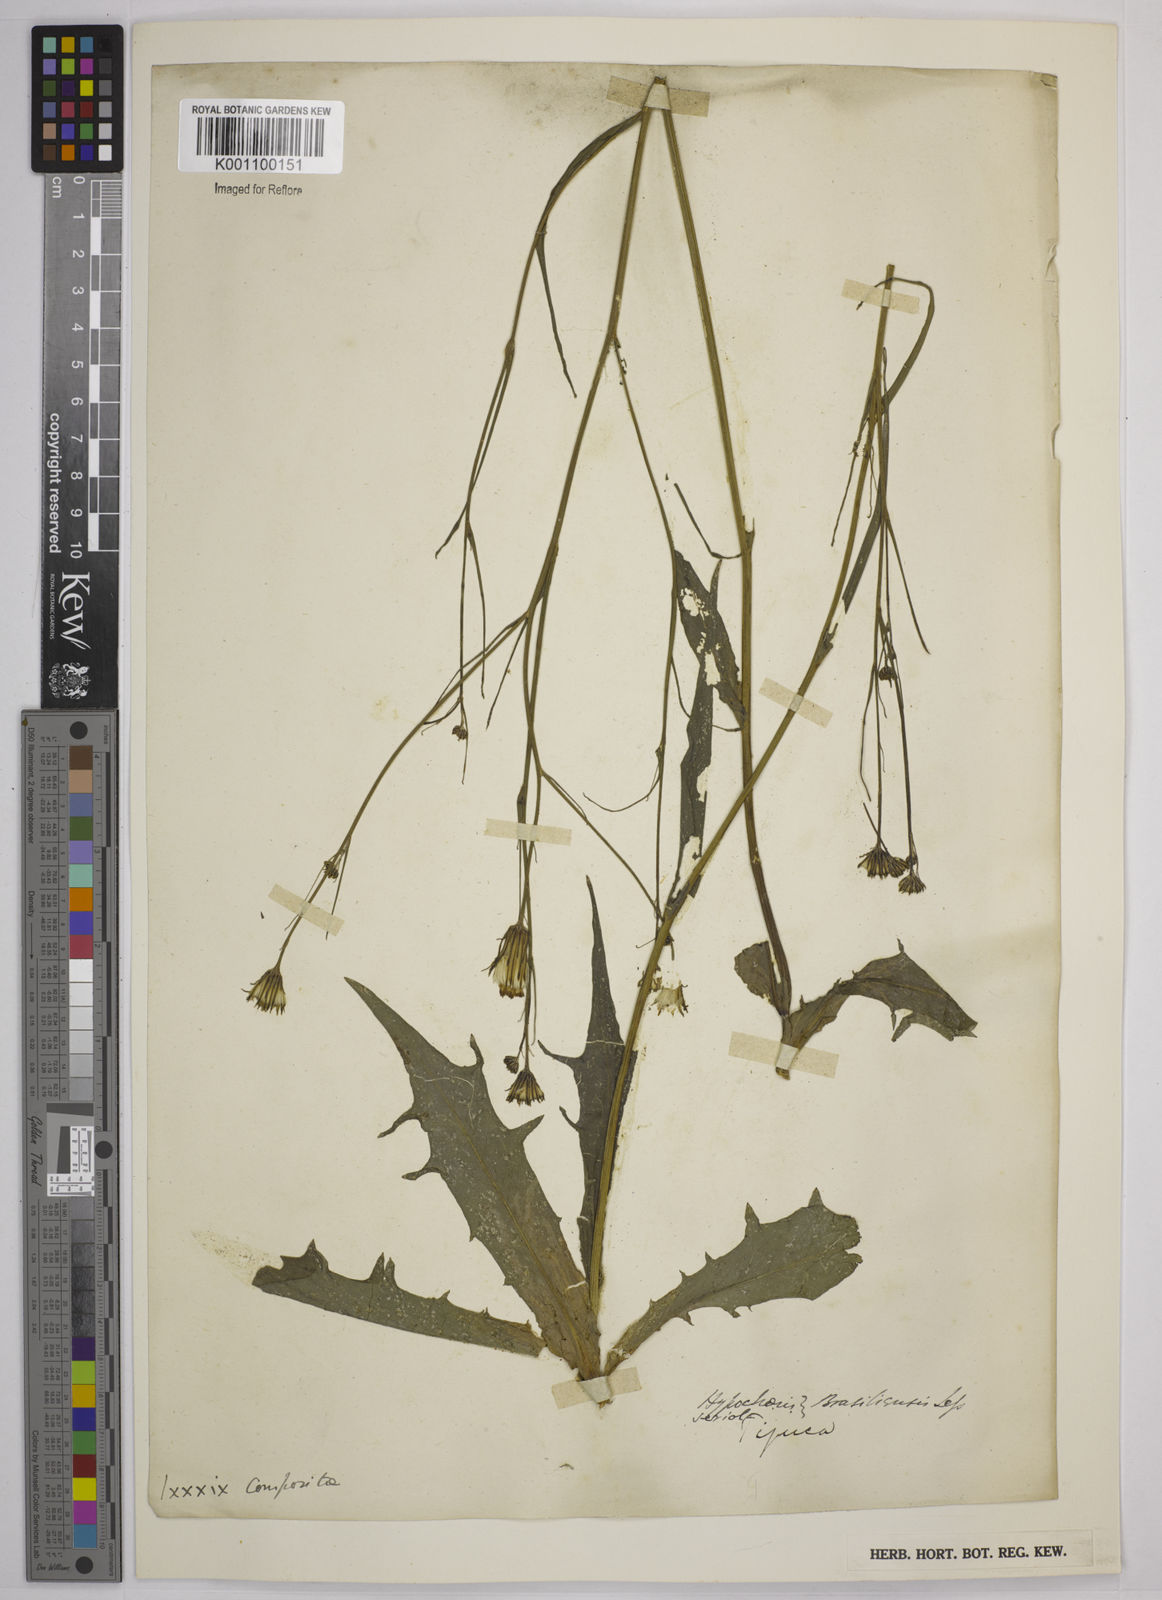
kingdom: Plantae
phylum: Tracheophyta
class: Magnoliopsida
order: Asterales
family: Asteraceae
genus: Hypochaeris
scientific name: Hypochaeris chillensis
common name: Brazilian cat's ear
